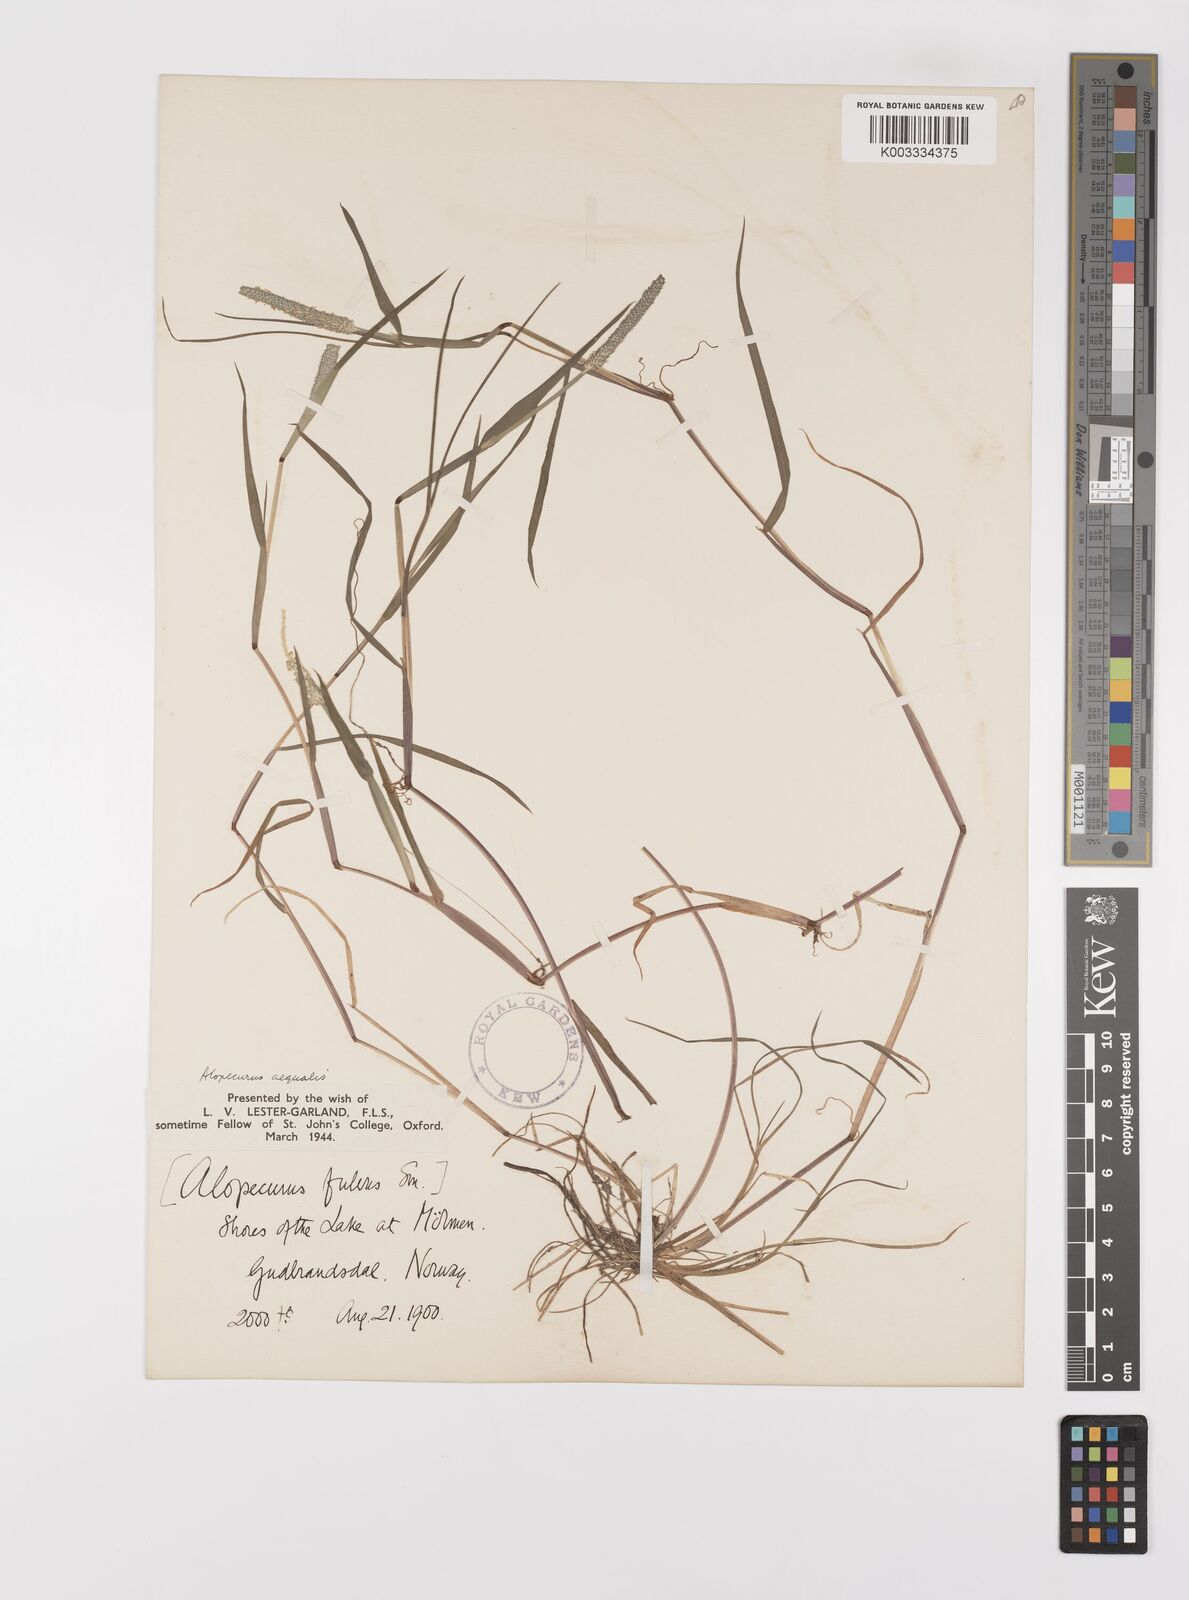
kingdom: Plantae
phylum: Tracheophyta
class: Liliopsida
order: Poales
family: Poaceae
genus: Alopecurus
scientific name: Alopecurus aequalis
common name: Orange foxtail
